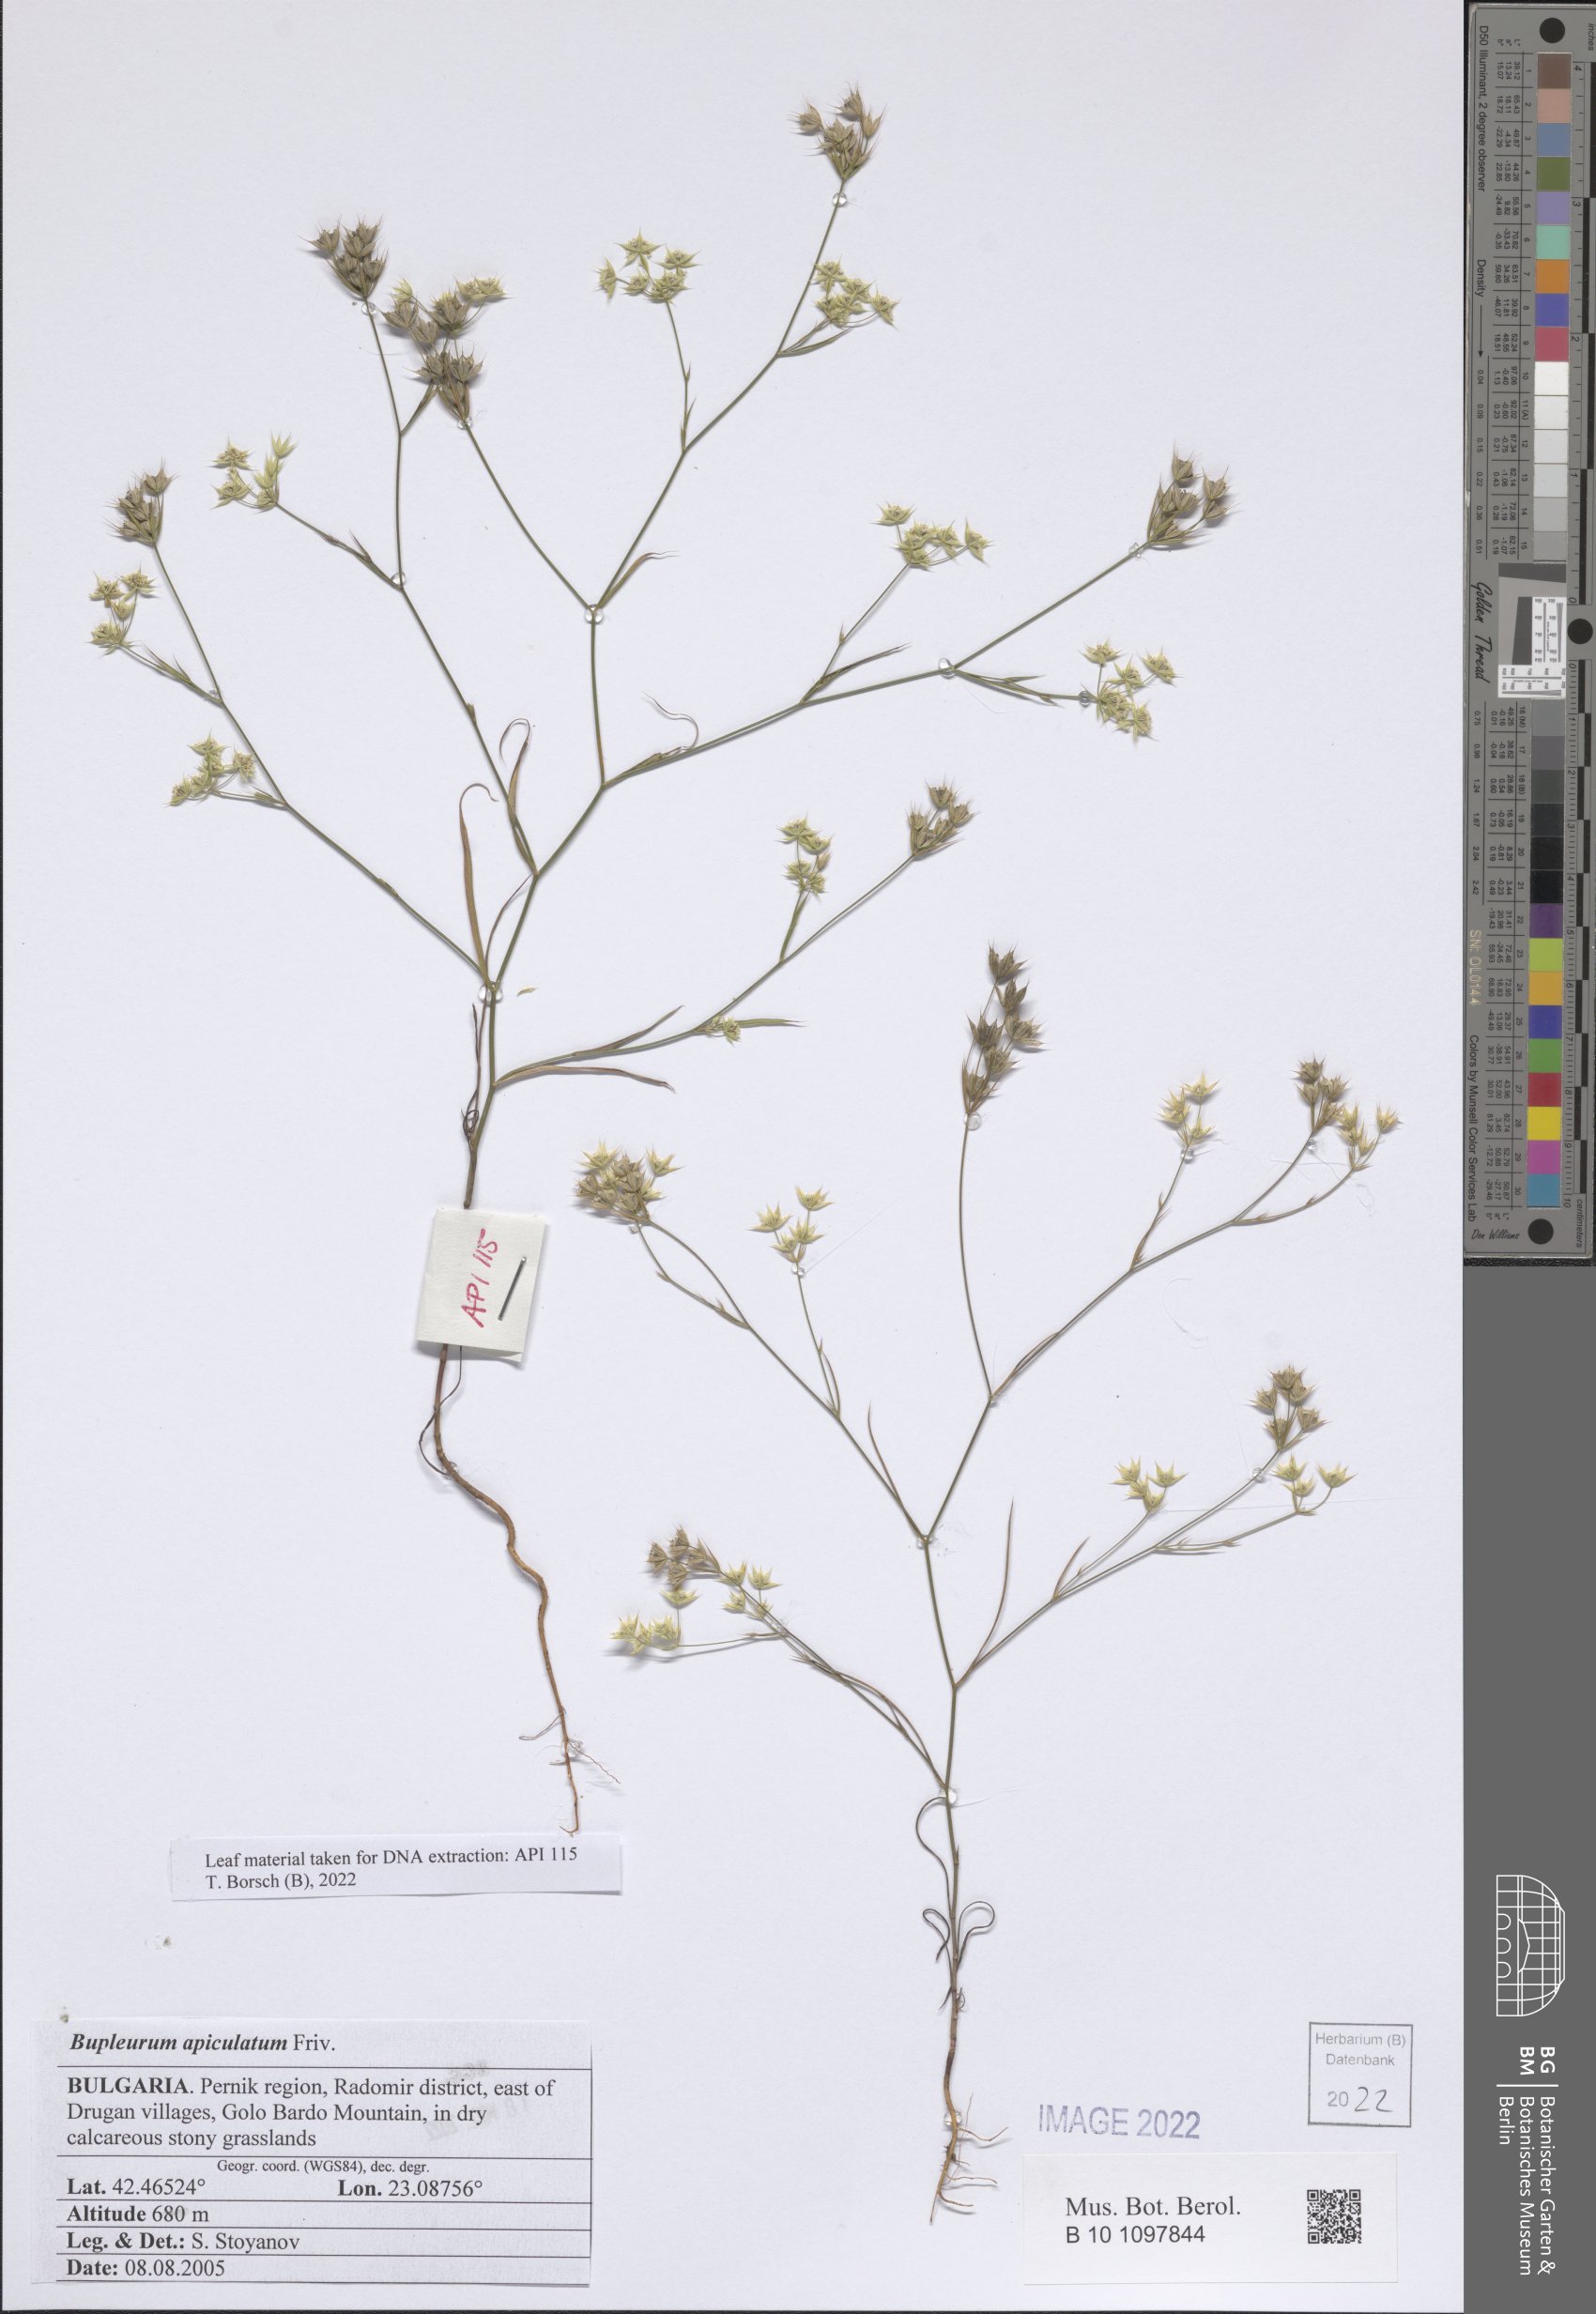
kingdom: Plantae
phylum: Tracheophyta
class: Magnoliopsida
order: Apiales
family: Apiaceae
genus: Bupleurum
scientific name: Bupleurum apiculatum
